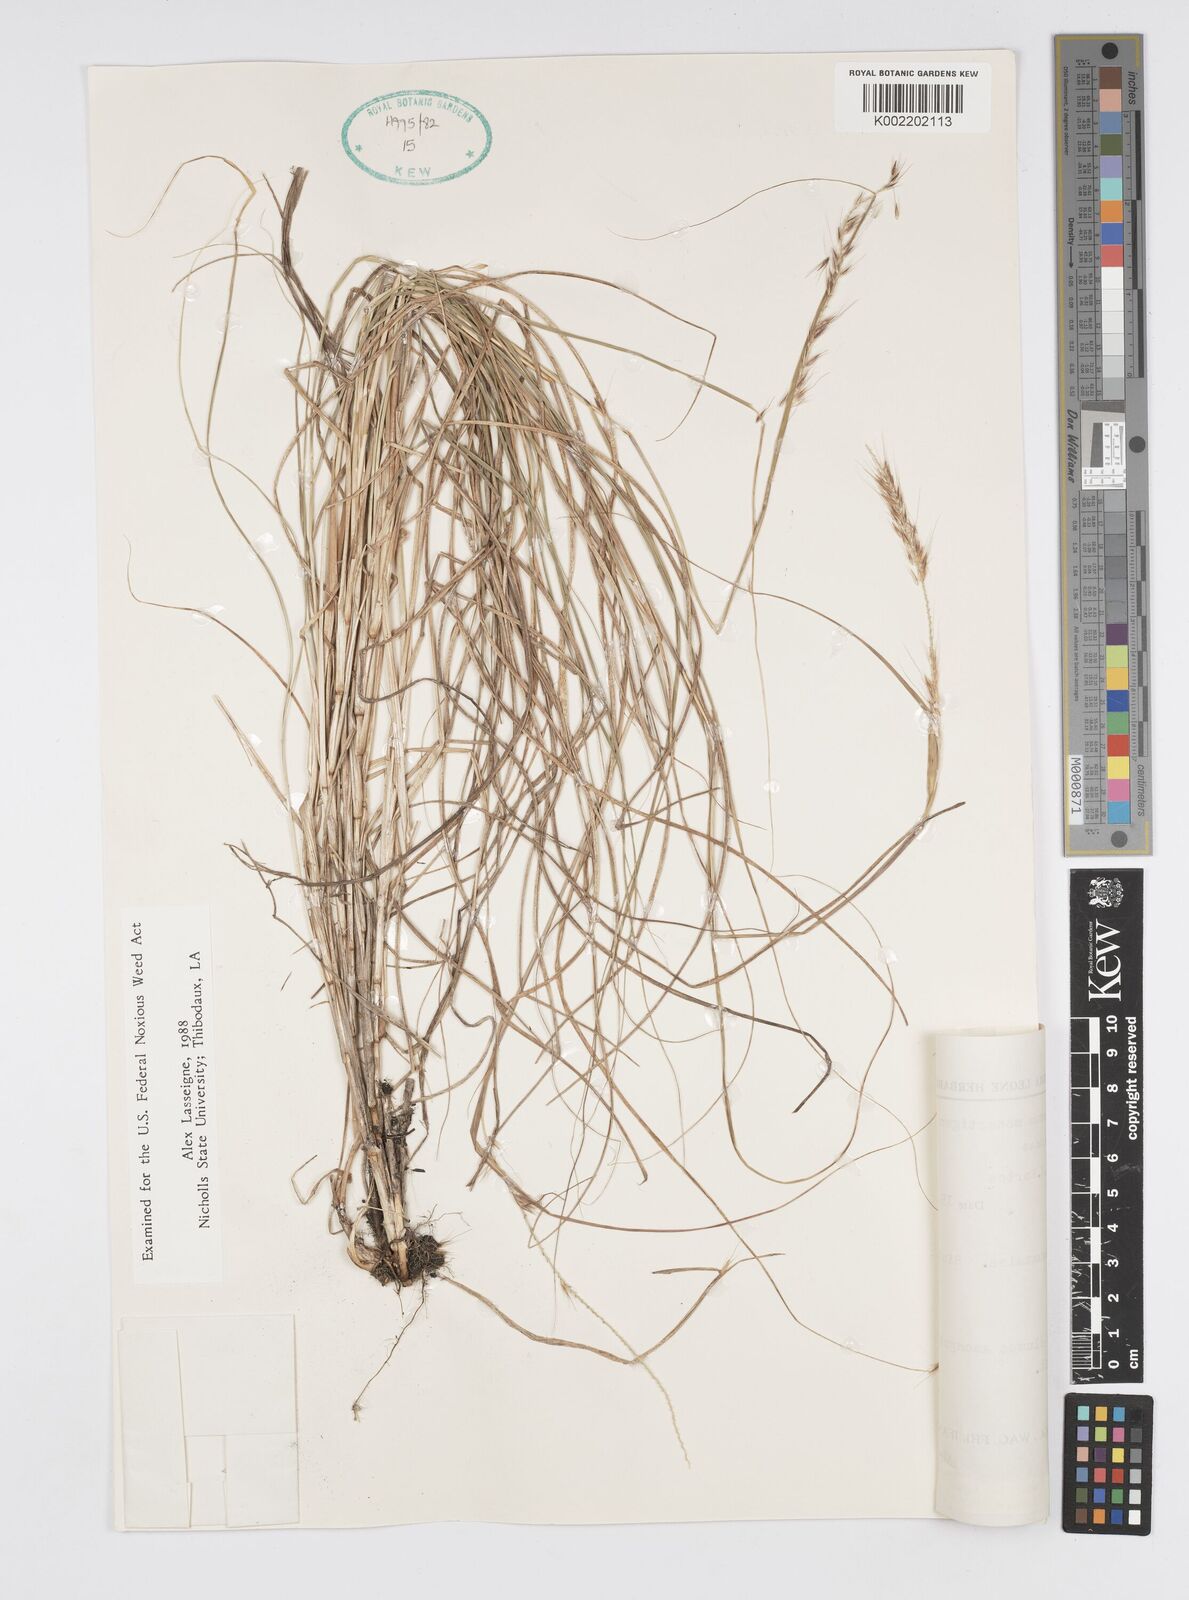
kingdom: Plantae
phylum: Tracheophyta
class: Liliopsida
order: Poales
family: Poaceae
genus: Cenchrus
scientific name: Cenchrus monostigma
